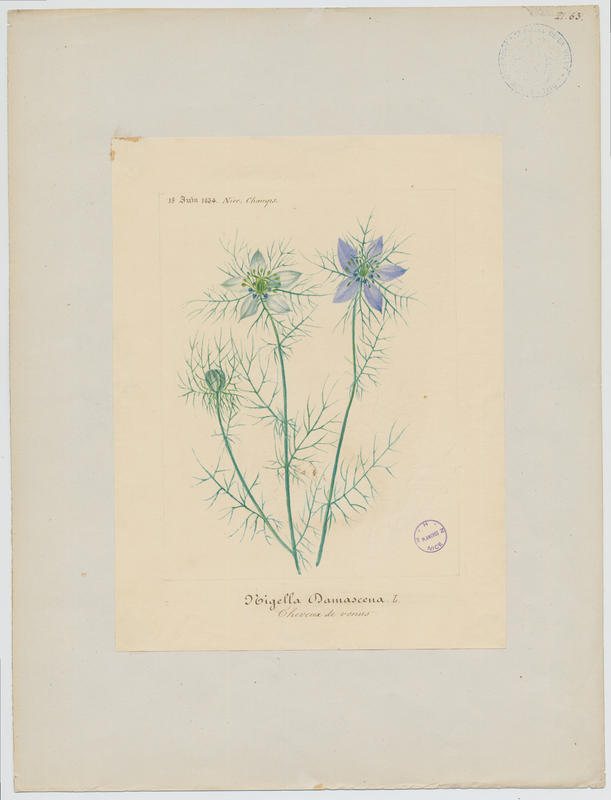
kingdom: Plantae
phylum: Tracheophyta
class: Magnoliopsida
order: Ranunculales
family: Ranunculaceae
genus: Nigella
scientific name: Nigella damascena
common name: Love-in-a-mist
